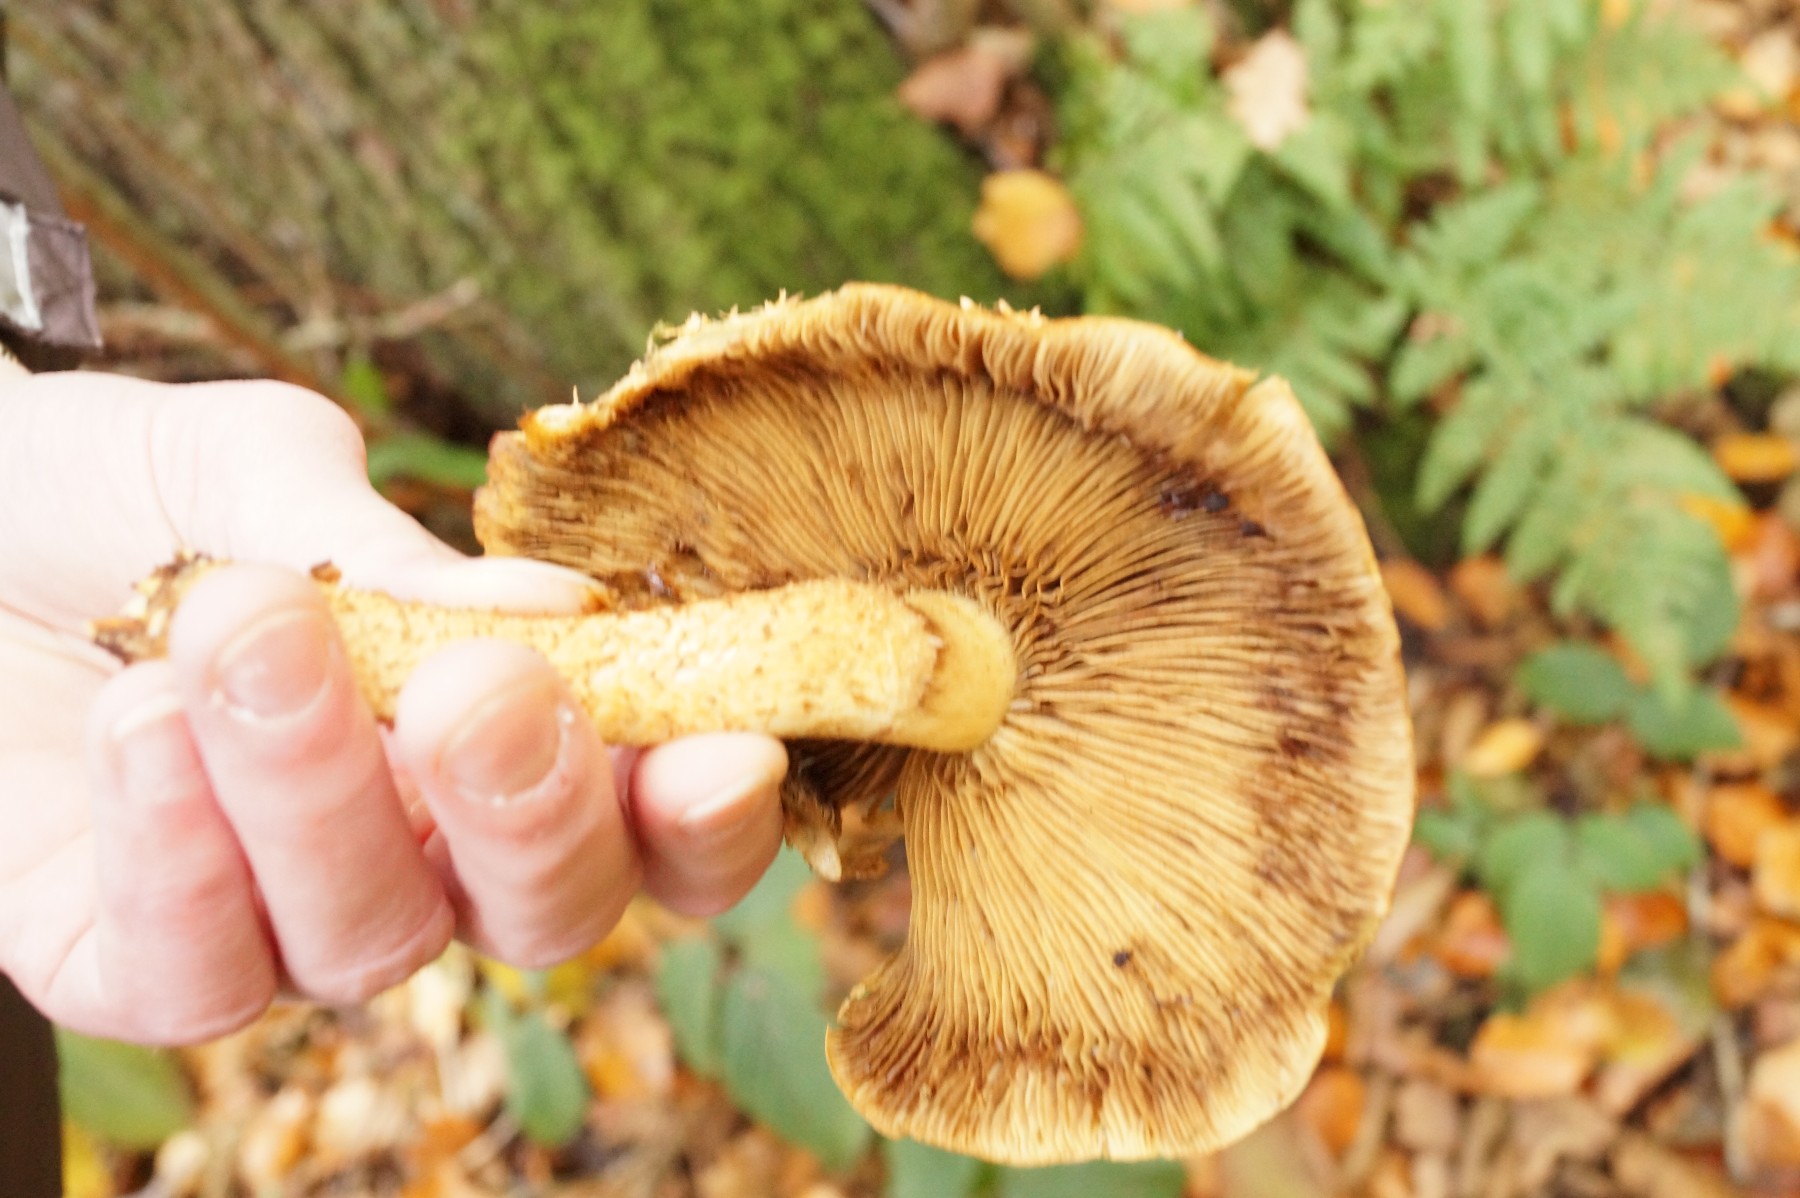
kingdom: Fungi
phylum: Basidiomycota
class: Agaricomycetes
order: Agaricales
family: Strophariaceae
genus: Pholiota
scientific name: Pholiota squarrosa
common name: krumskællet skælhat
